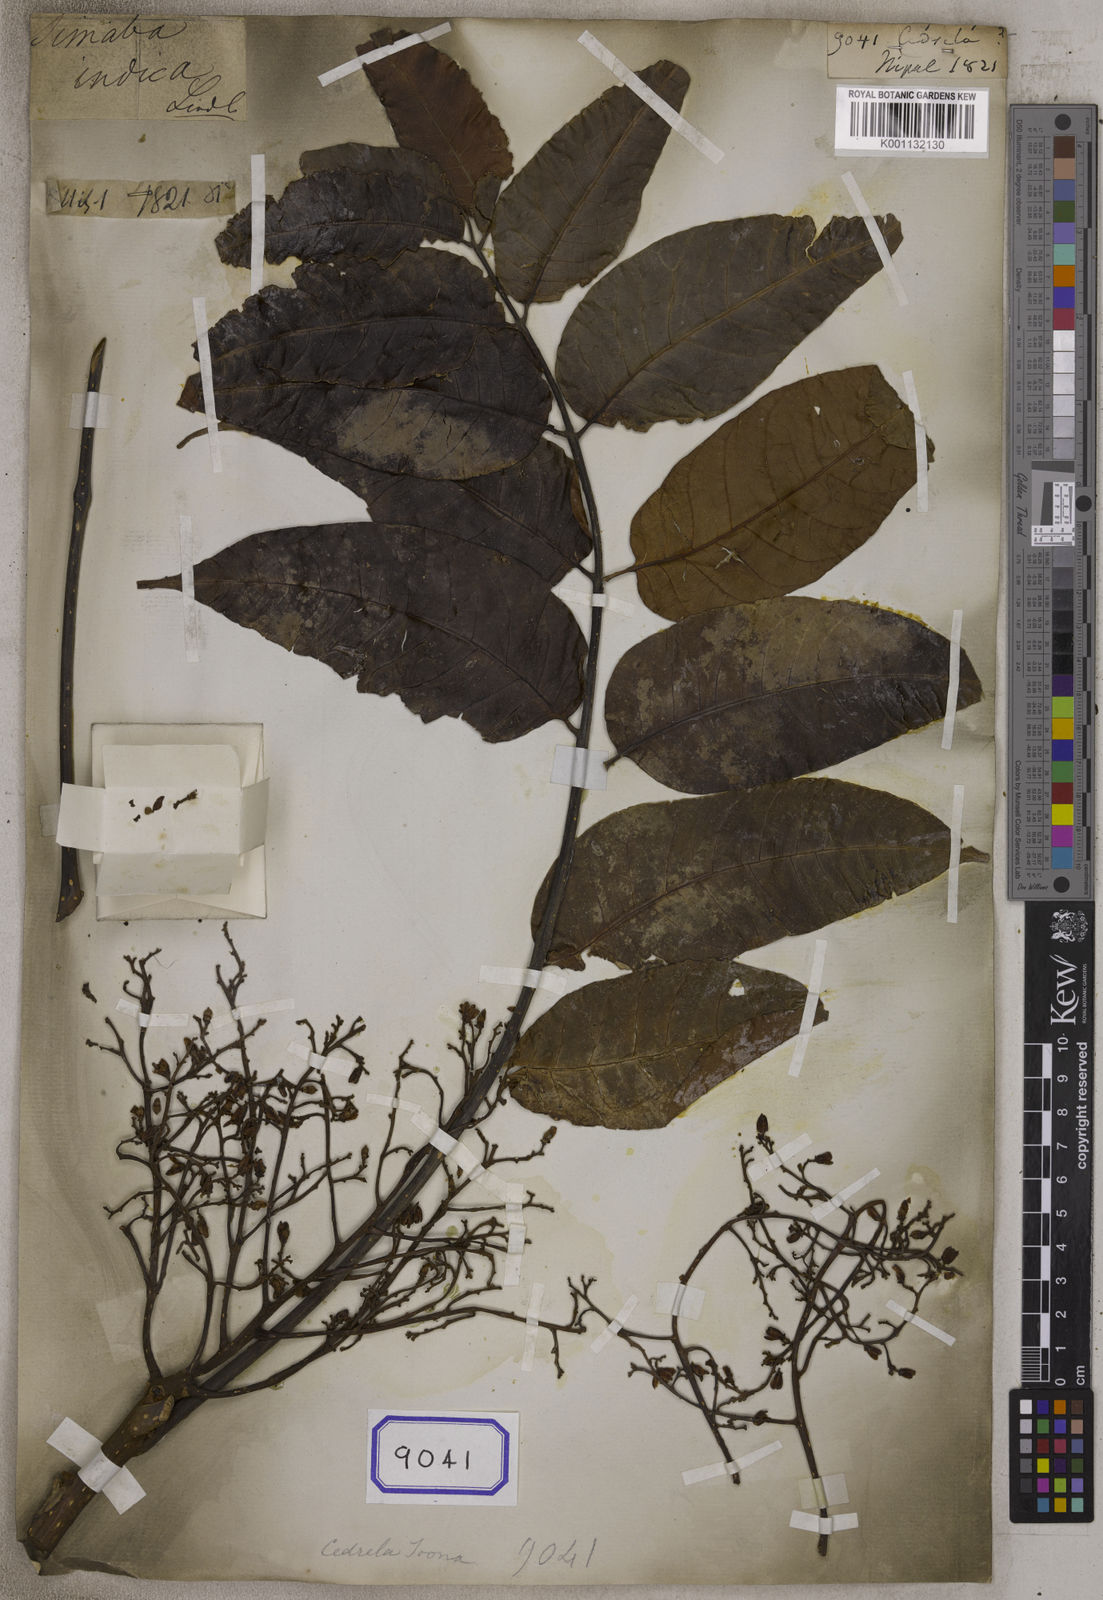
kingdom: Plantae
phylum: Tracheophyta
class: Magnoliopsida
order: Sapindales
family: Meliaceae
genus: Cedrela
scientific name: Cedrela
